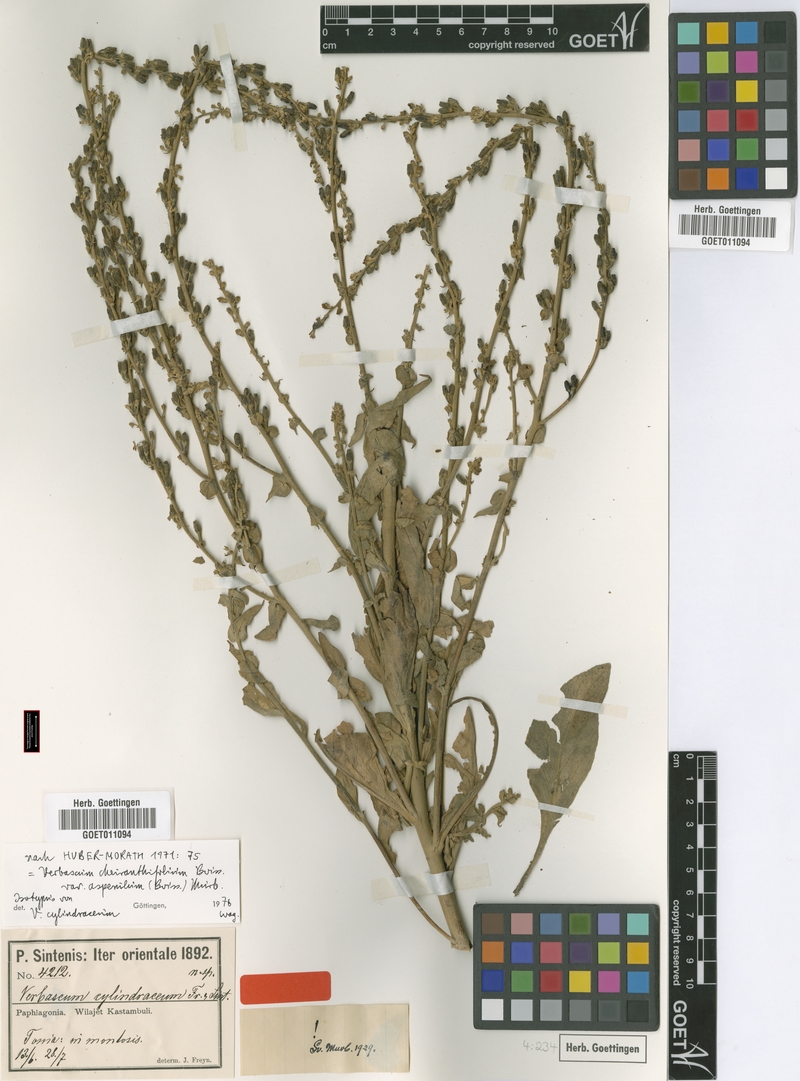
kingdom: Plantae
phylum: Tracheophyta
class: Magnoliopsida
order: Lamiales
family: Scrophulariaceae
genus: Verbascum
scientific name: Verbascum cheiranthifollum
